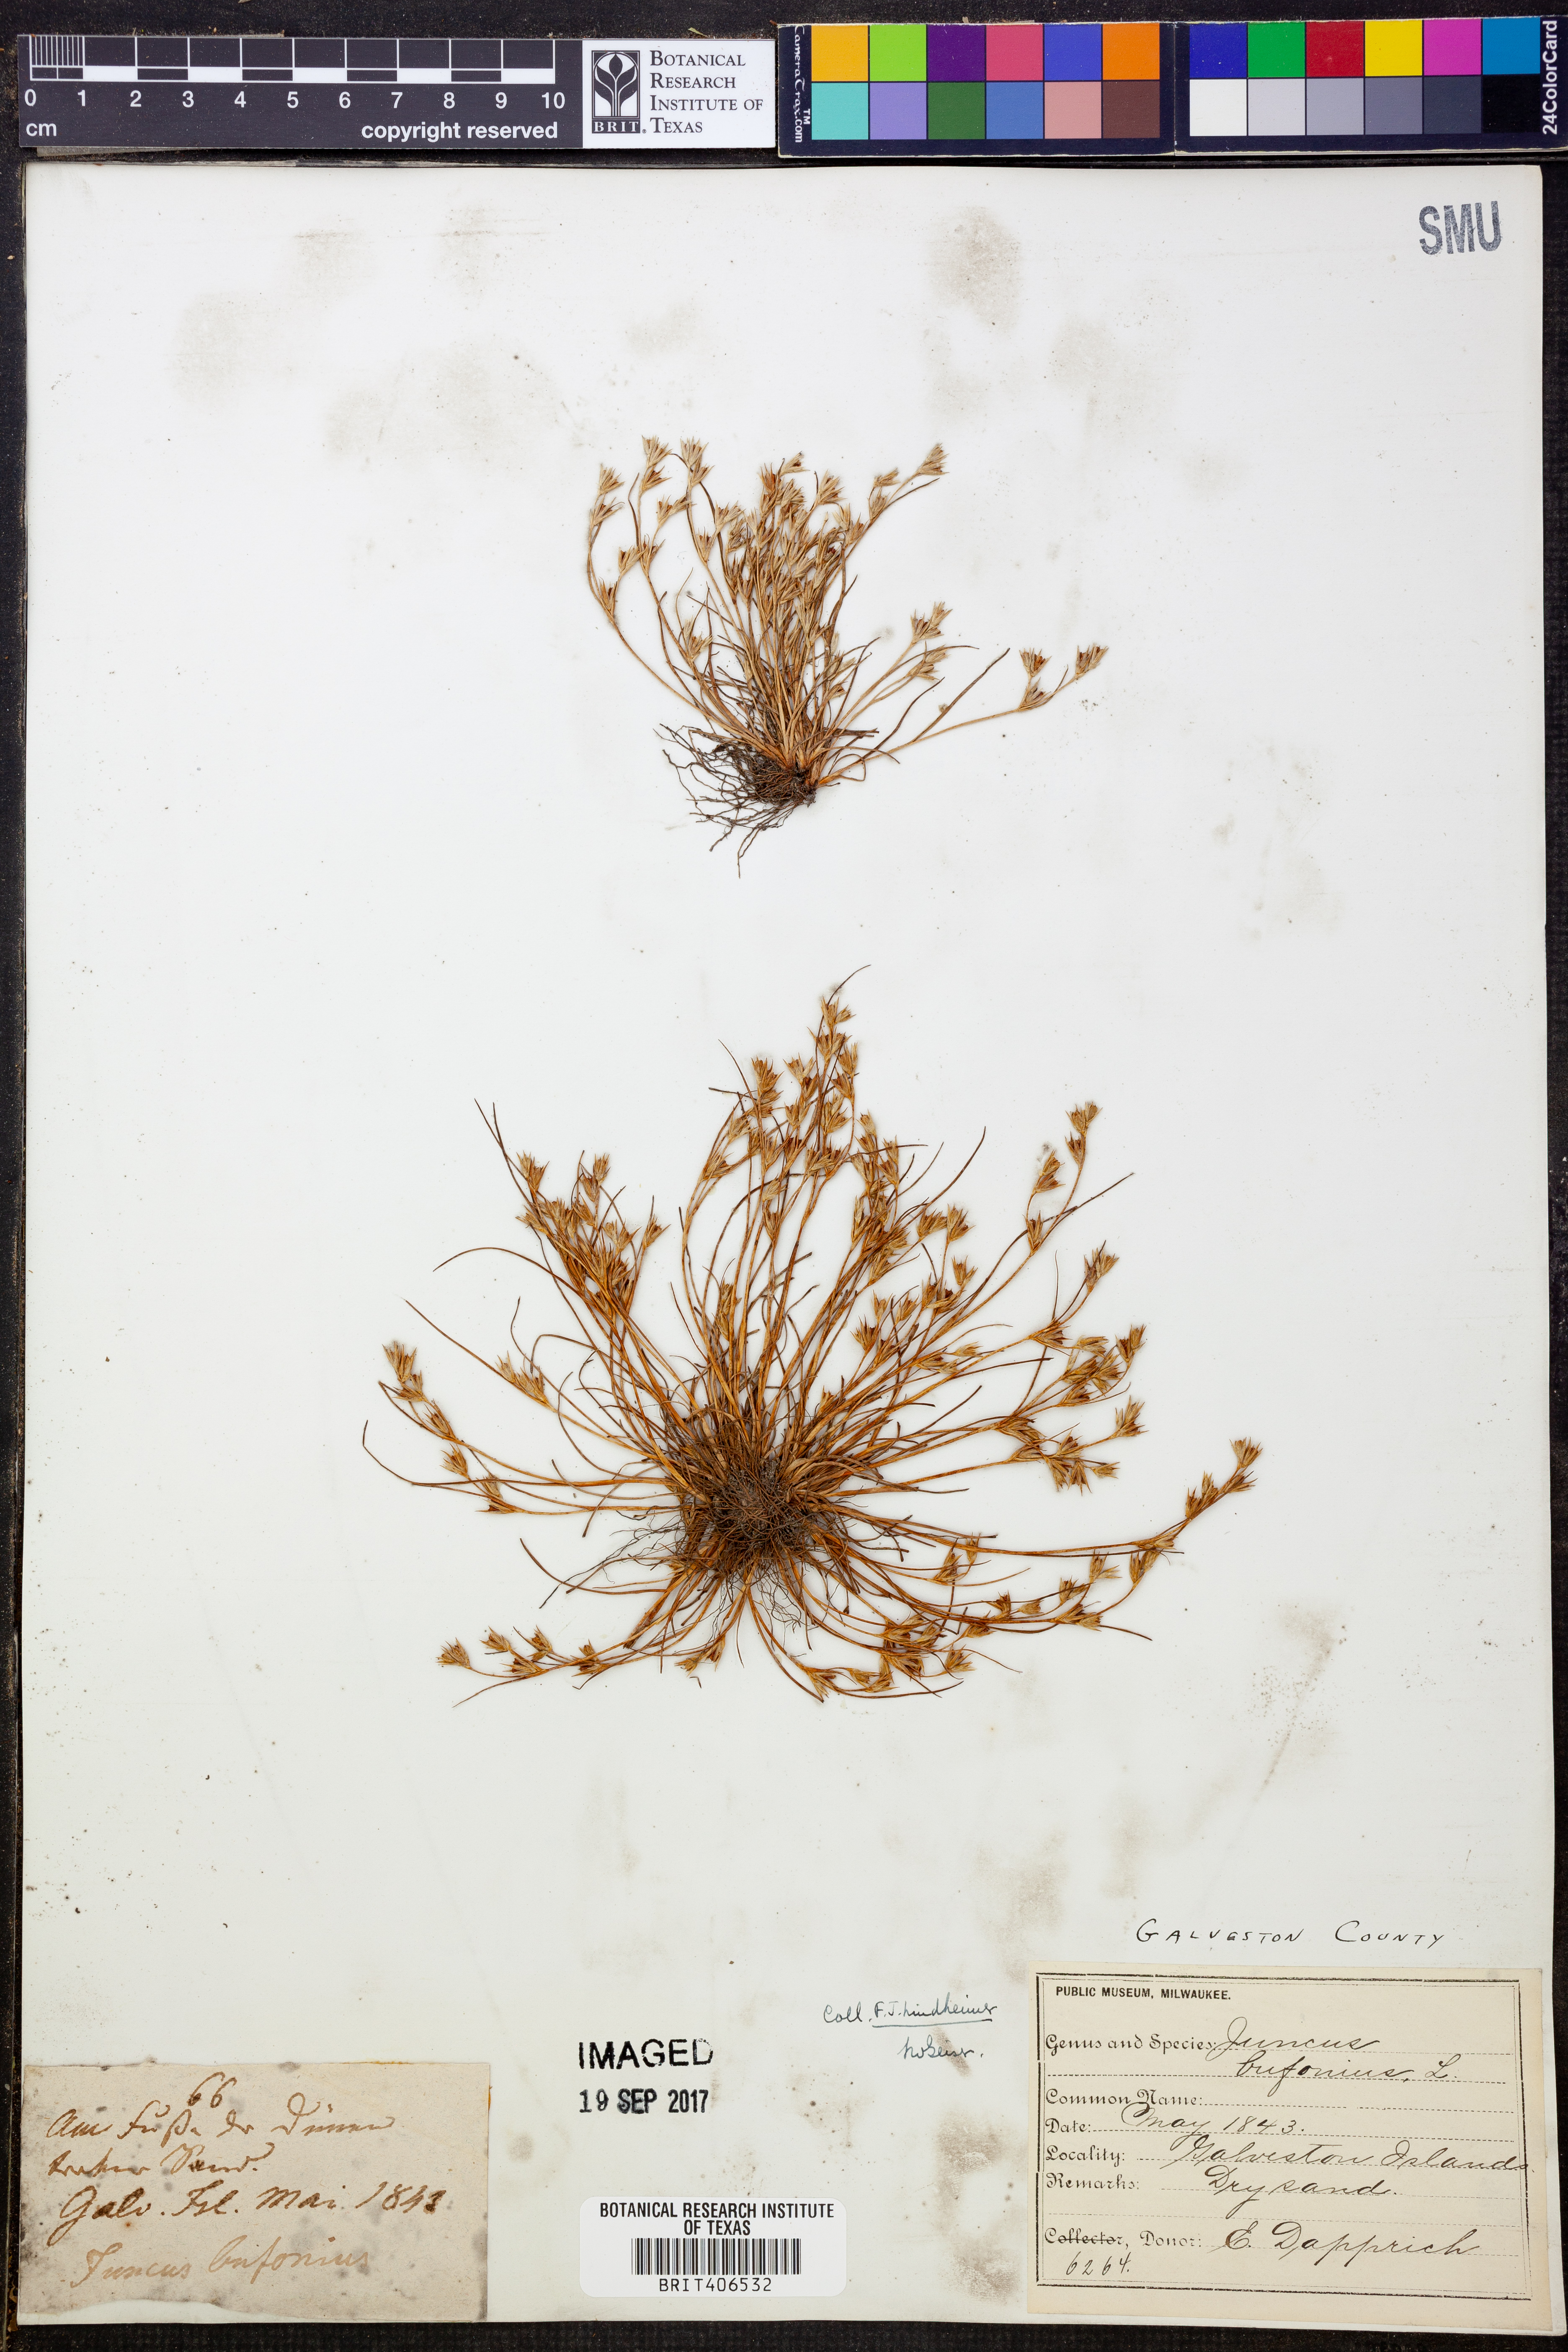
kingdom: Plantae
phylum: Tracheophyta
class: Liliopsida
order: Poales
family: Juncaceae
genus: Juncus
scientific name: Juncus bufonius
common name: Toad rush
